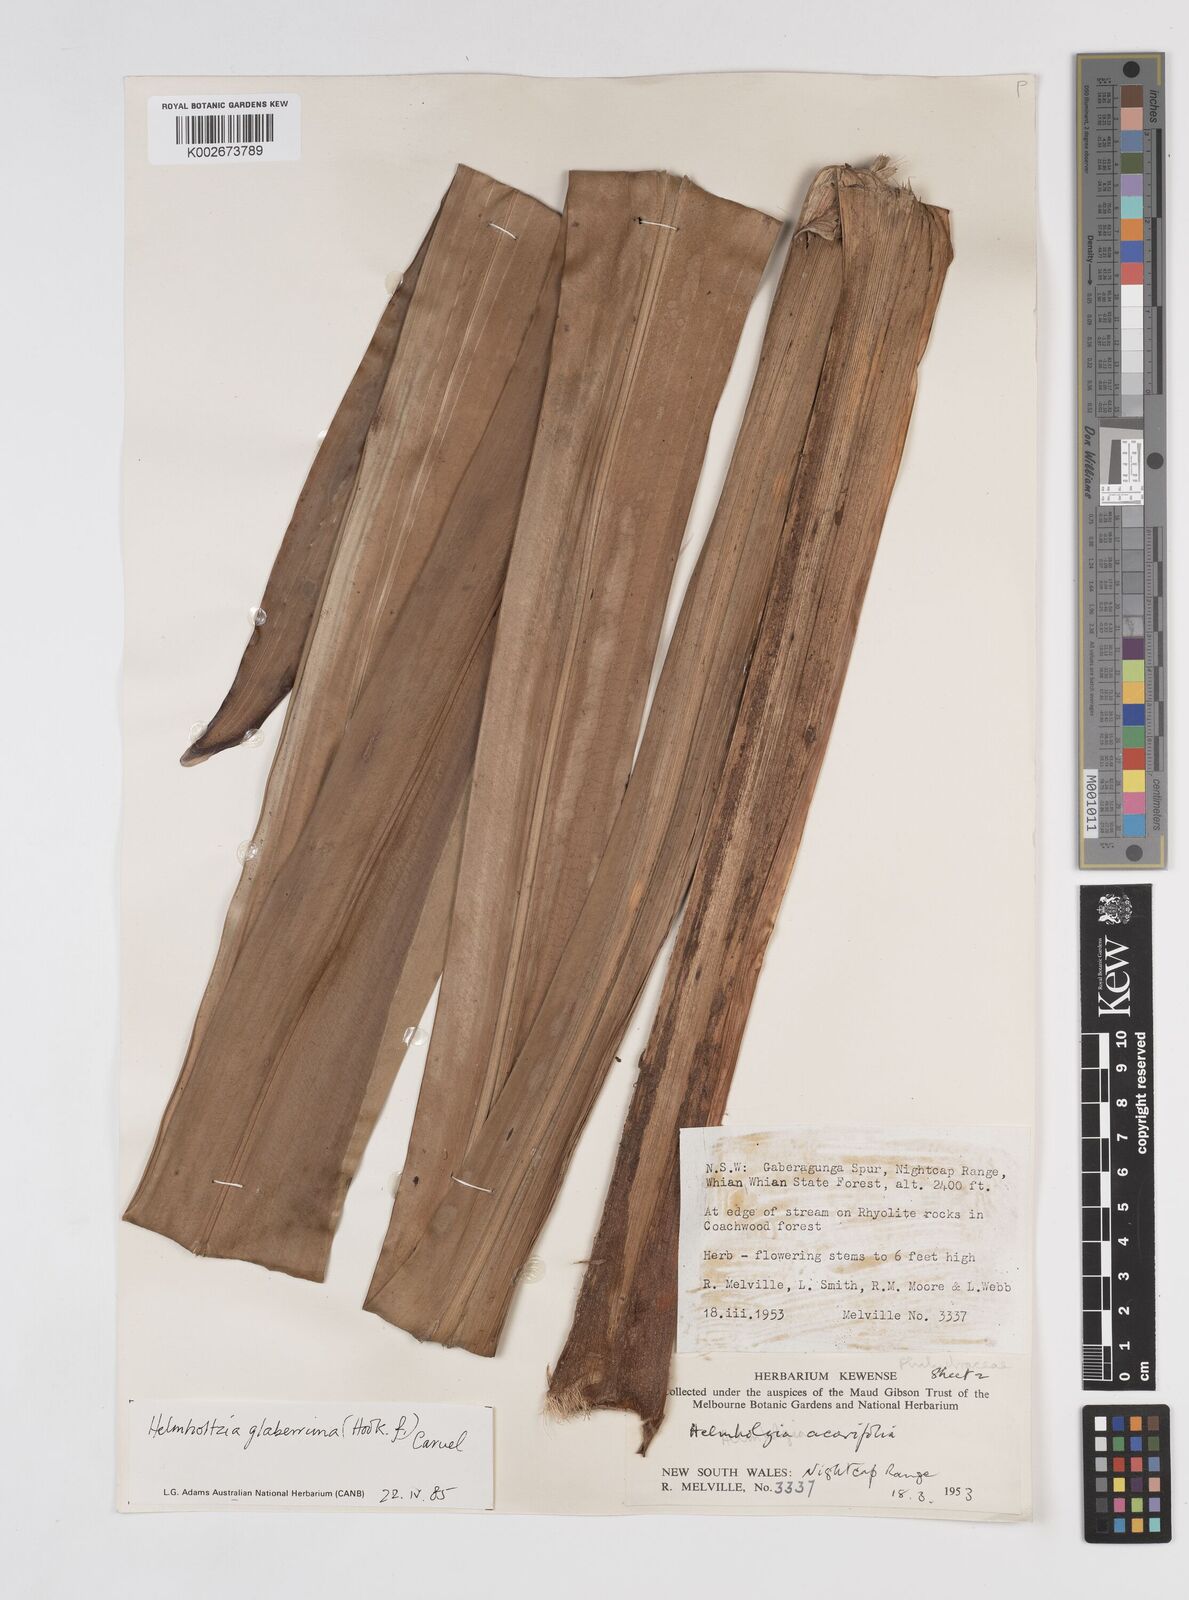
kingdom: Plantae
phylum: Tracheophyta
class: Liliopsida
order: Commelinales
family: Philydraceae
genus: Helmholtzia
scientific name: Helmholtzia glaberrima
